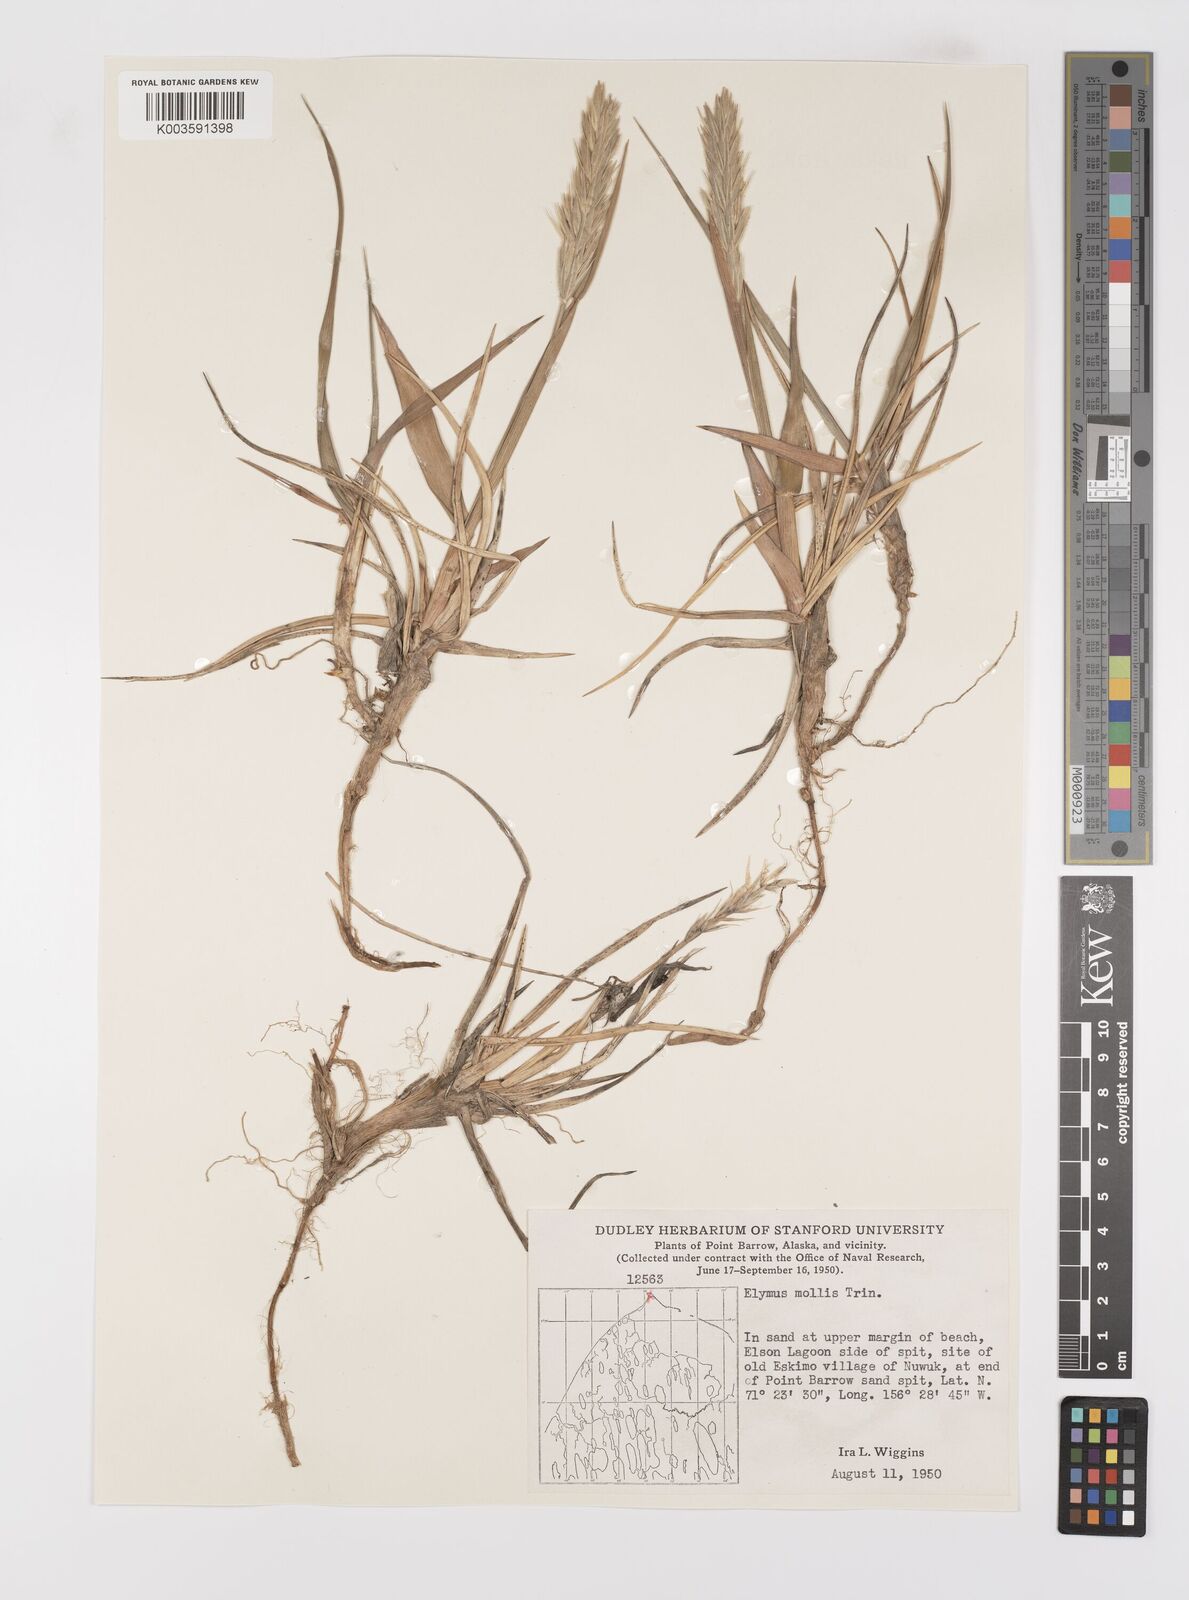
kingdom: Plantae
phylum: Tracheophyta
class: Liliopsida
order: Poales
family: Poaceae
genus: Leymus
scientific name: Leymus mollis
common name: American dune grass
